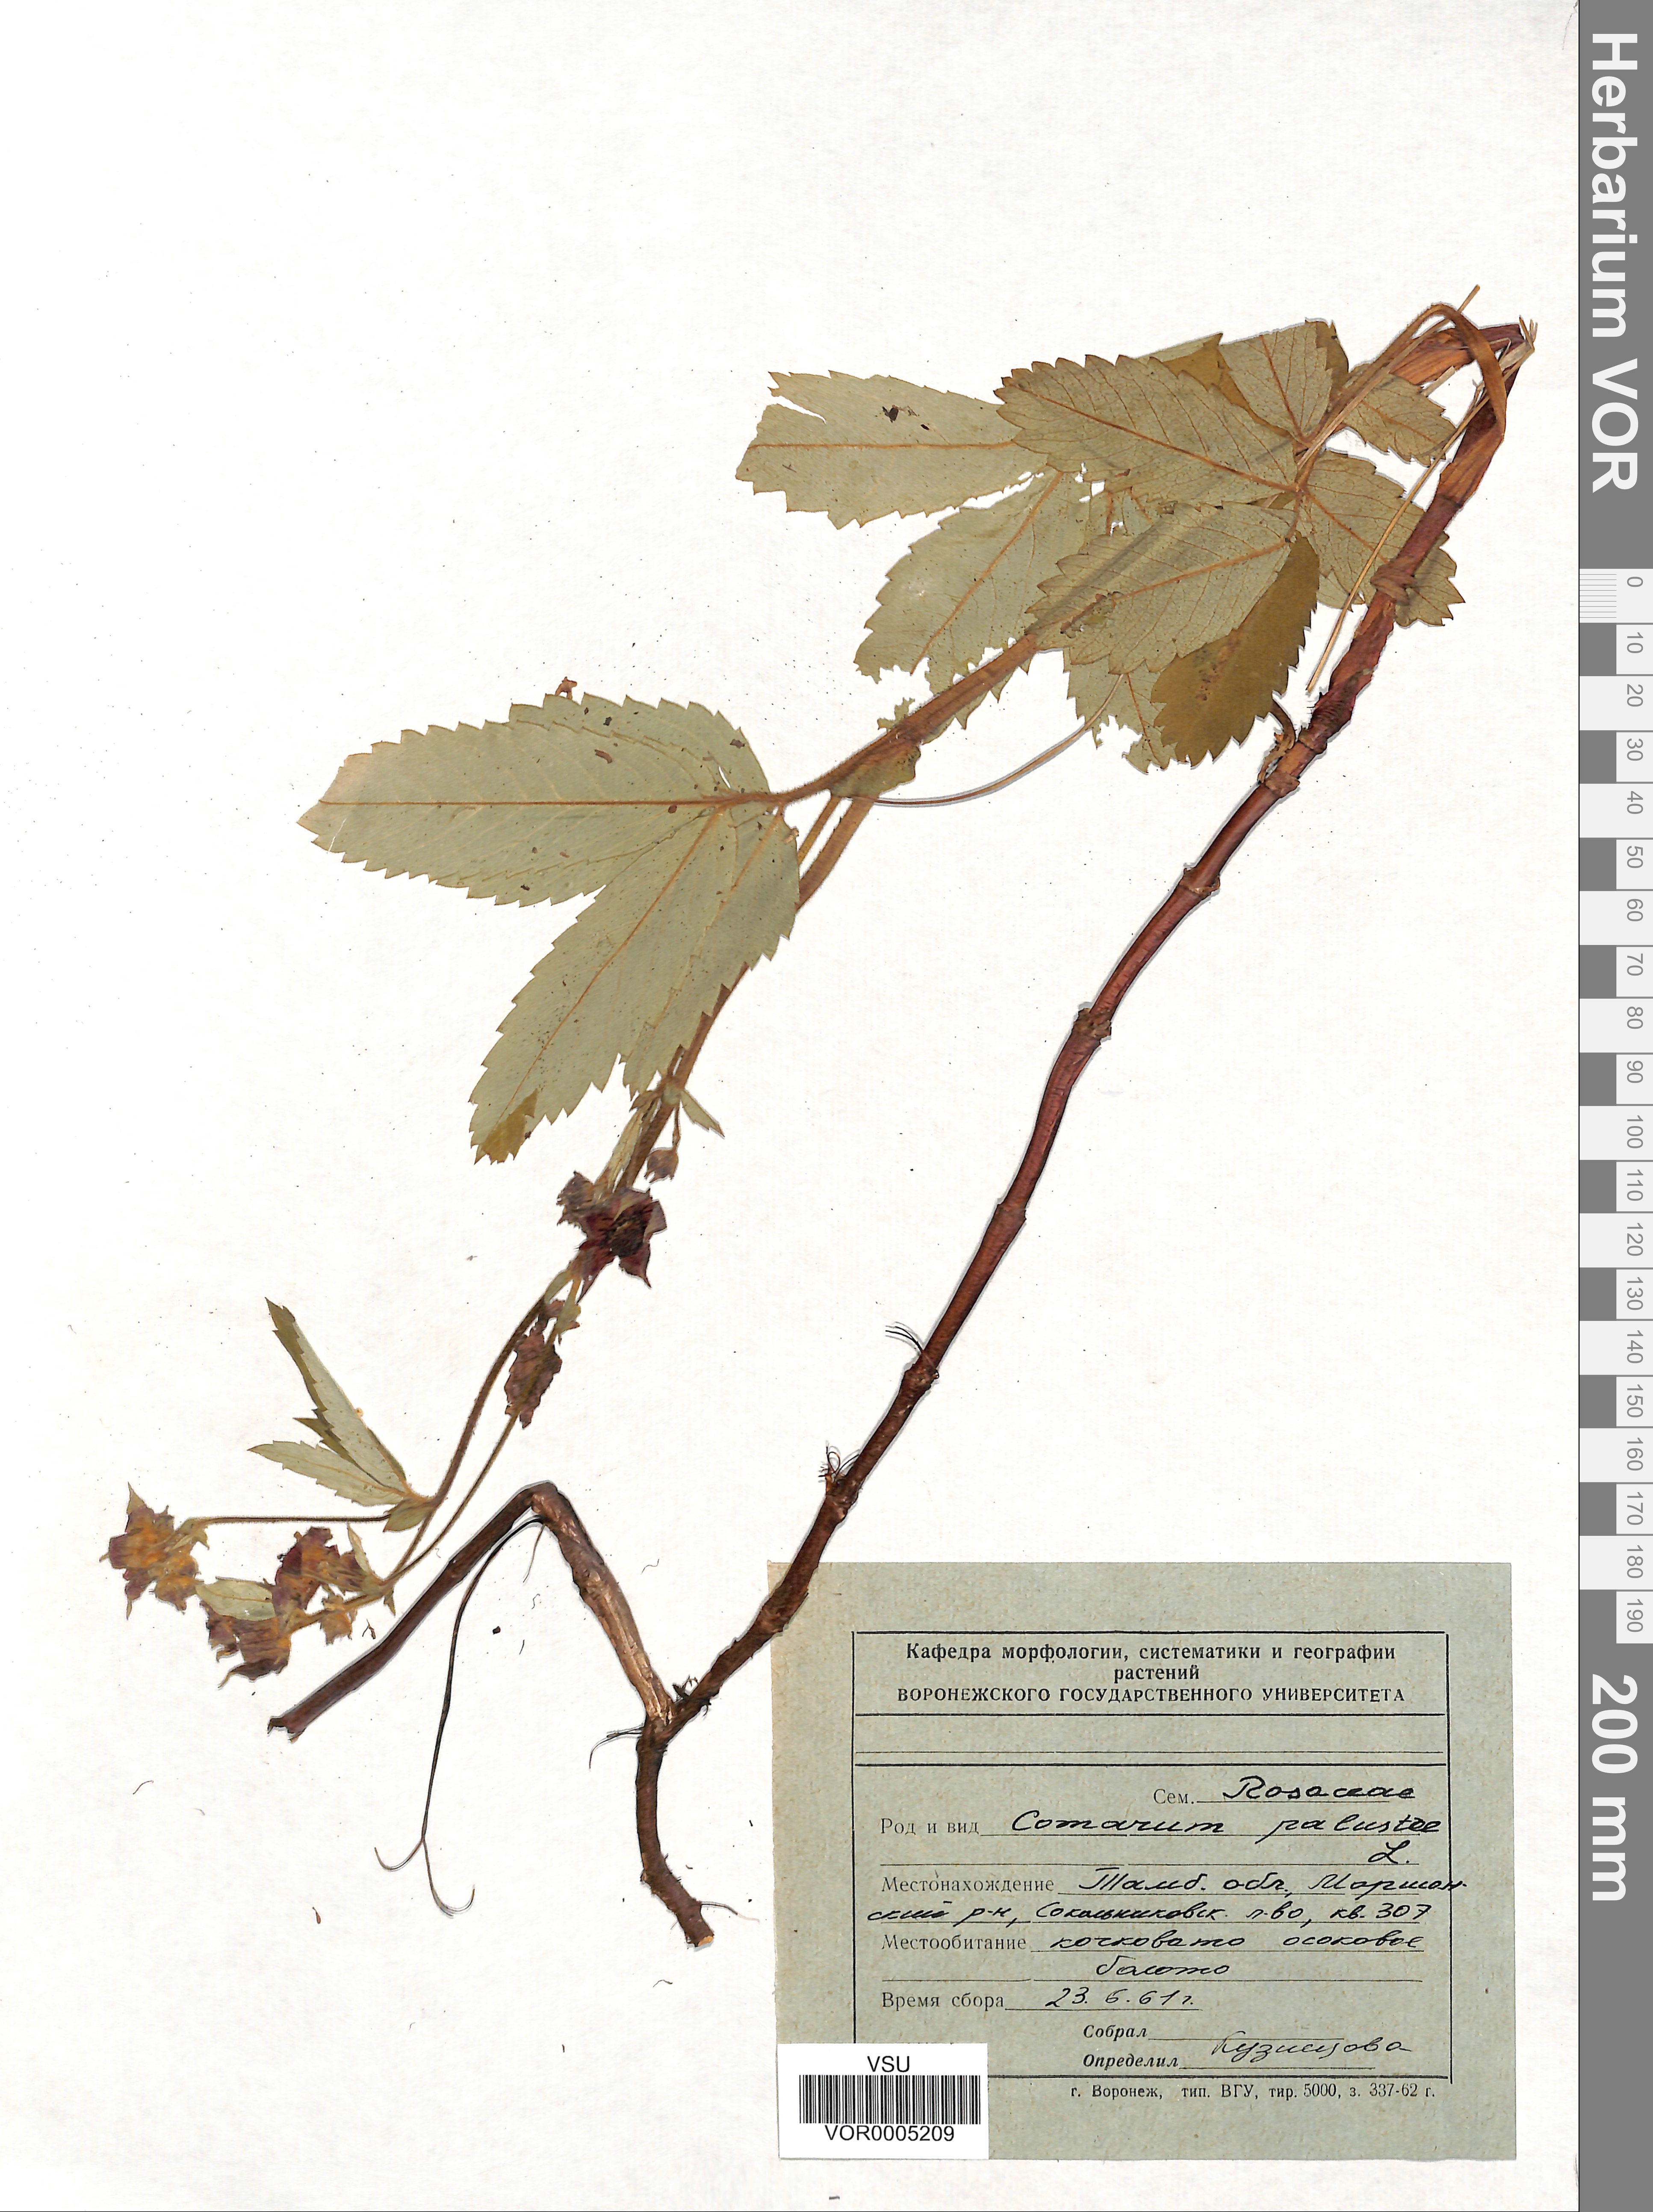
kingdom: Plantae
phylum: Tracheophyta
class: Magnoliopsida
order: Rosales
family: Rosaceae
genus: Comarum
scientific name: Comarum palustre
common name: Marsh cinquefoil
